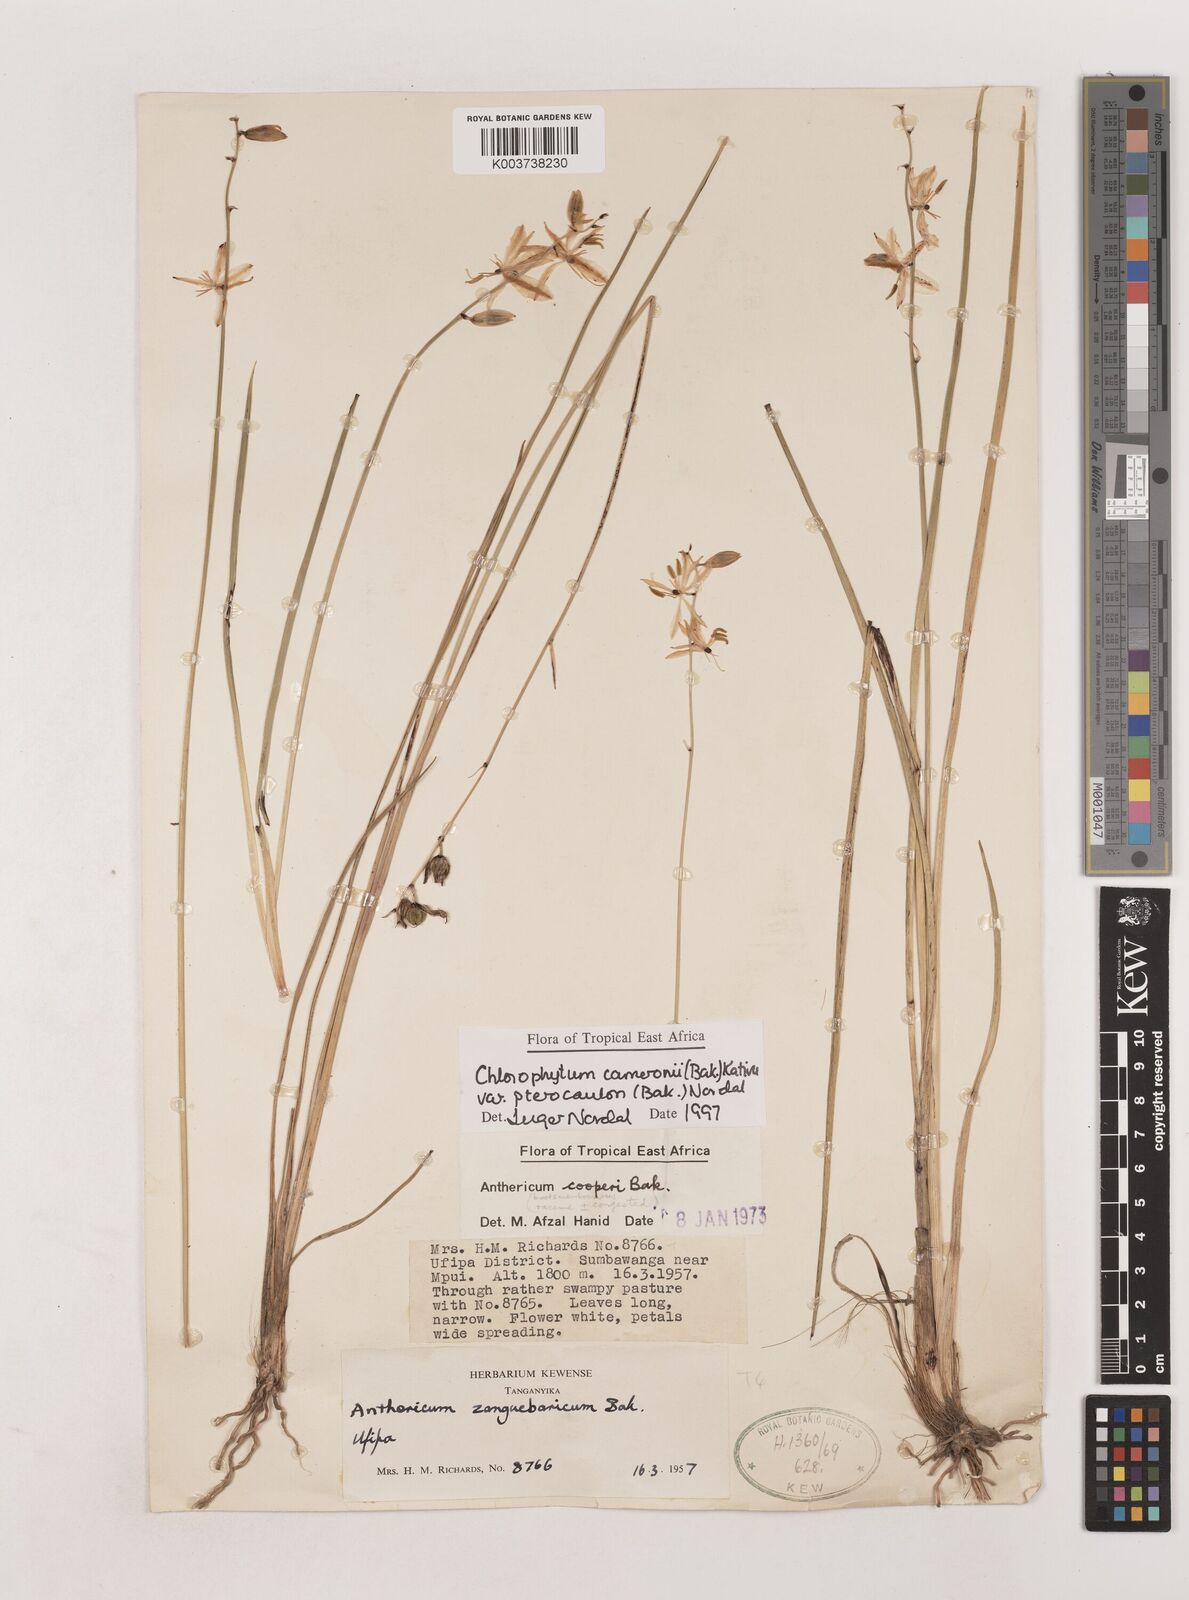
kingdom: Plantae
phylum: Tracheophyta
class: Liliopsida
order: Asparagales
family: Asparagaceae
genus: Chlorophytum
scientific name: Chlorophytum cameronii
